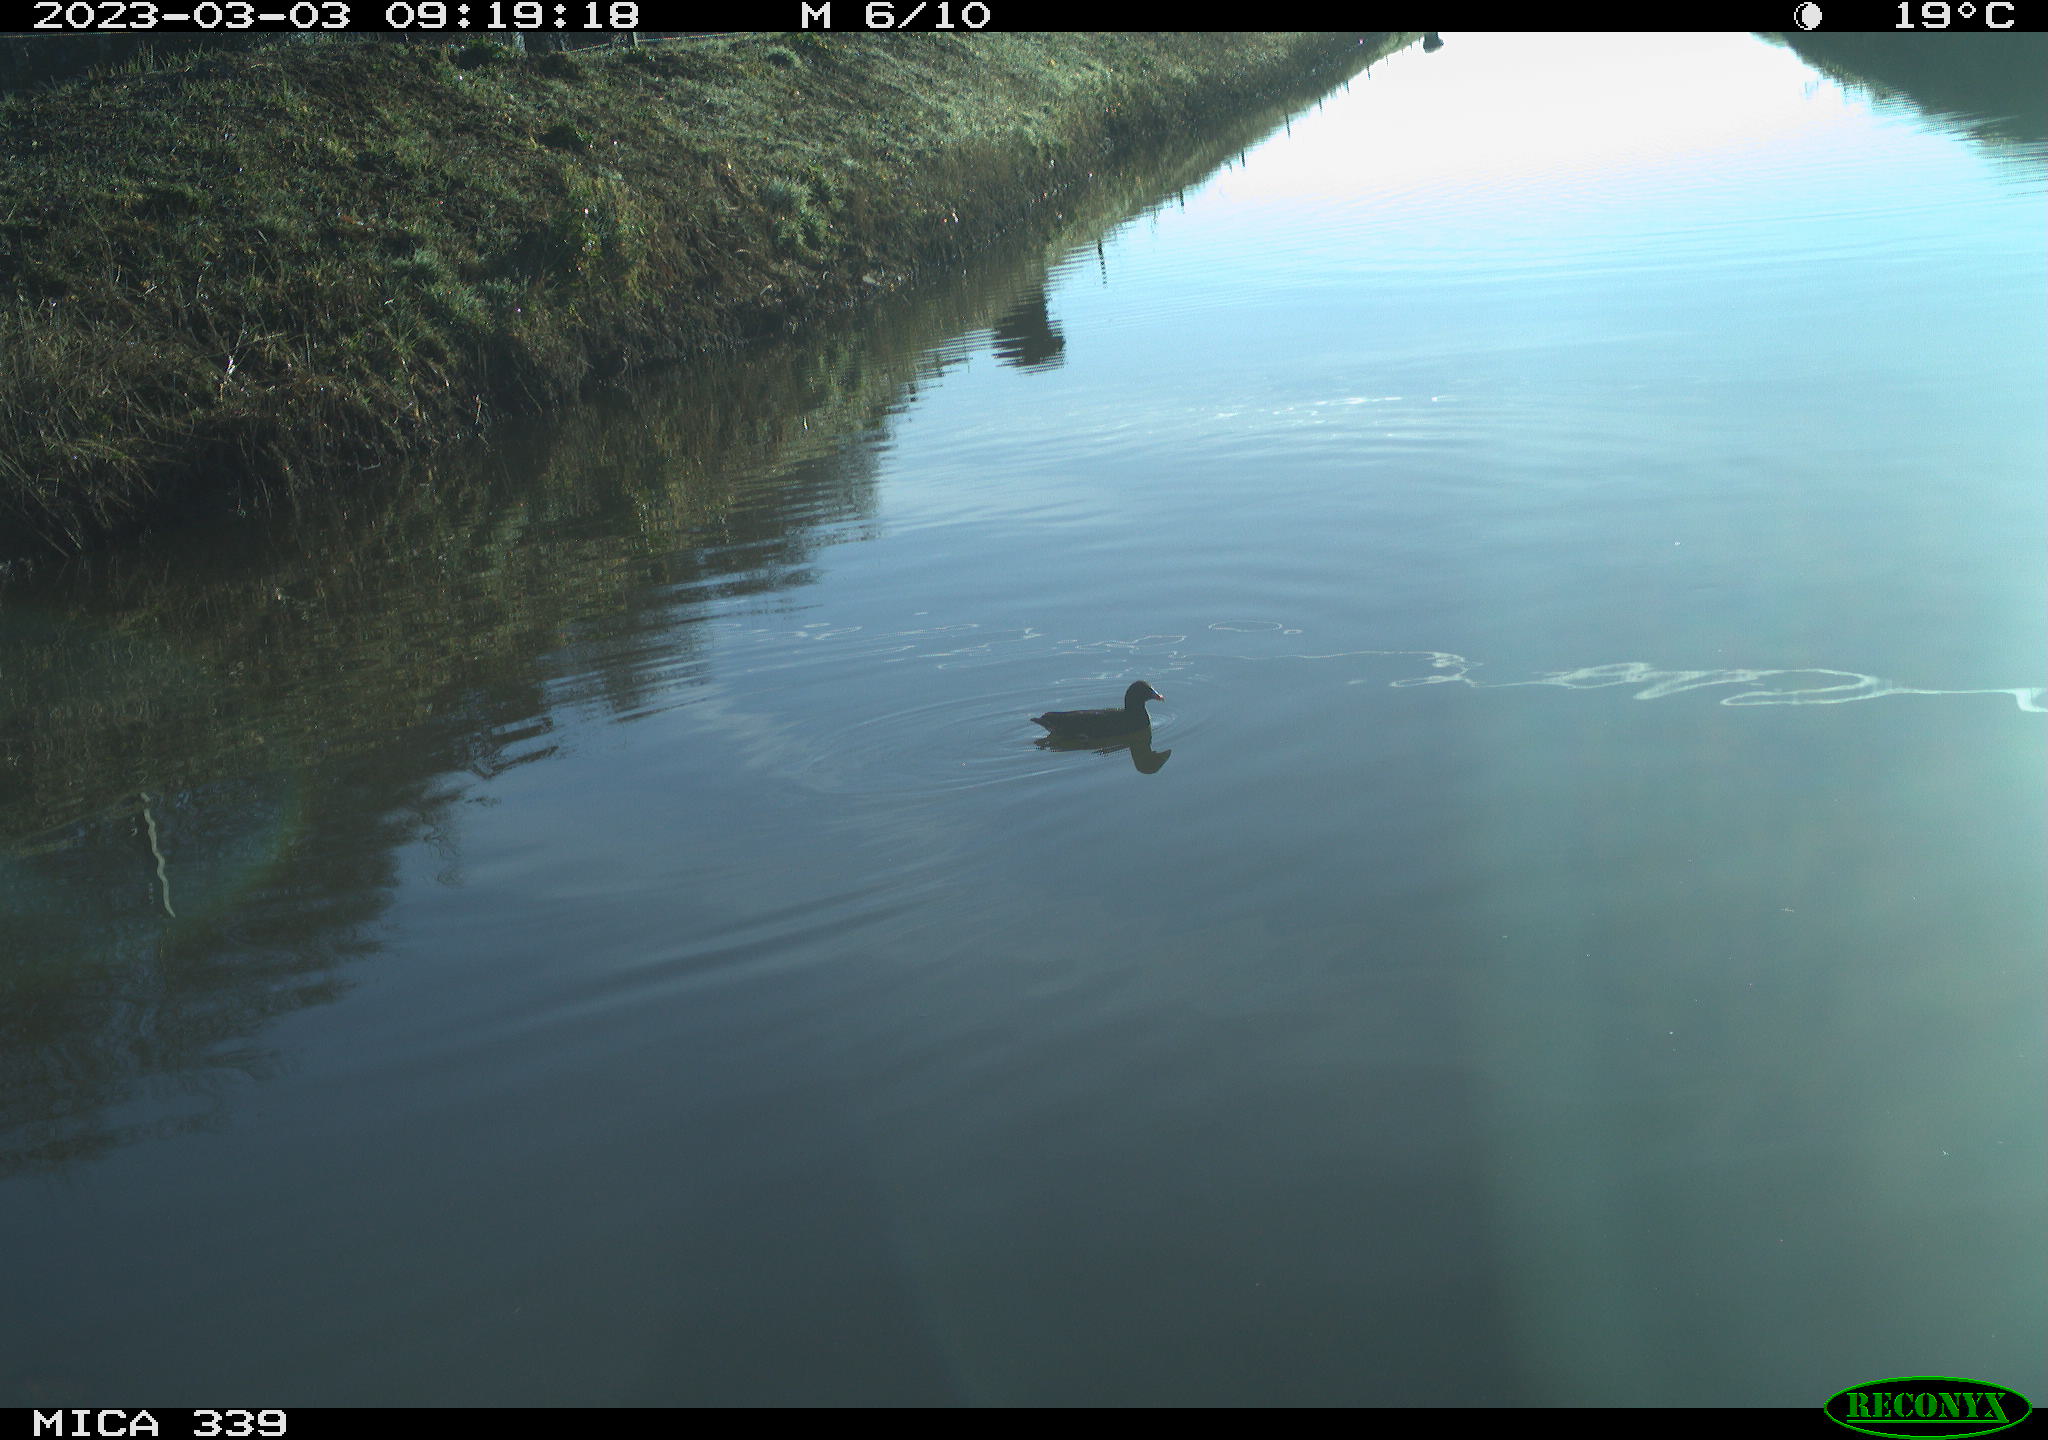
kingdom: Animalia
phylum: Chordata
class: Aves
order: Gruiformes
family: Rallidae
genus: Gallinula
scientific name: Gallinula chloropus
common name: Common moorhen
